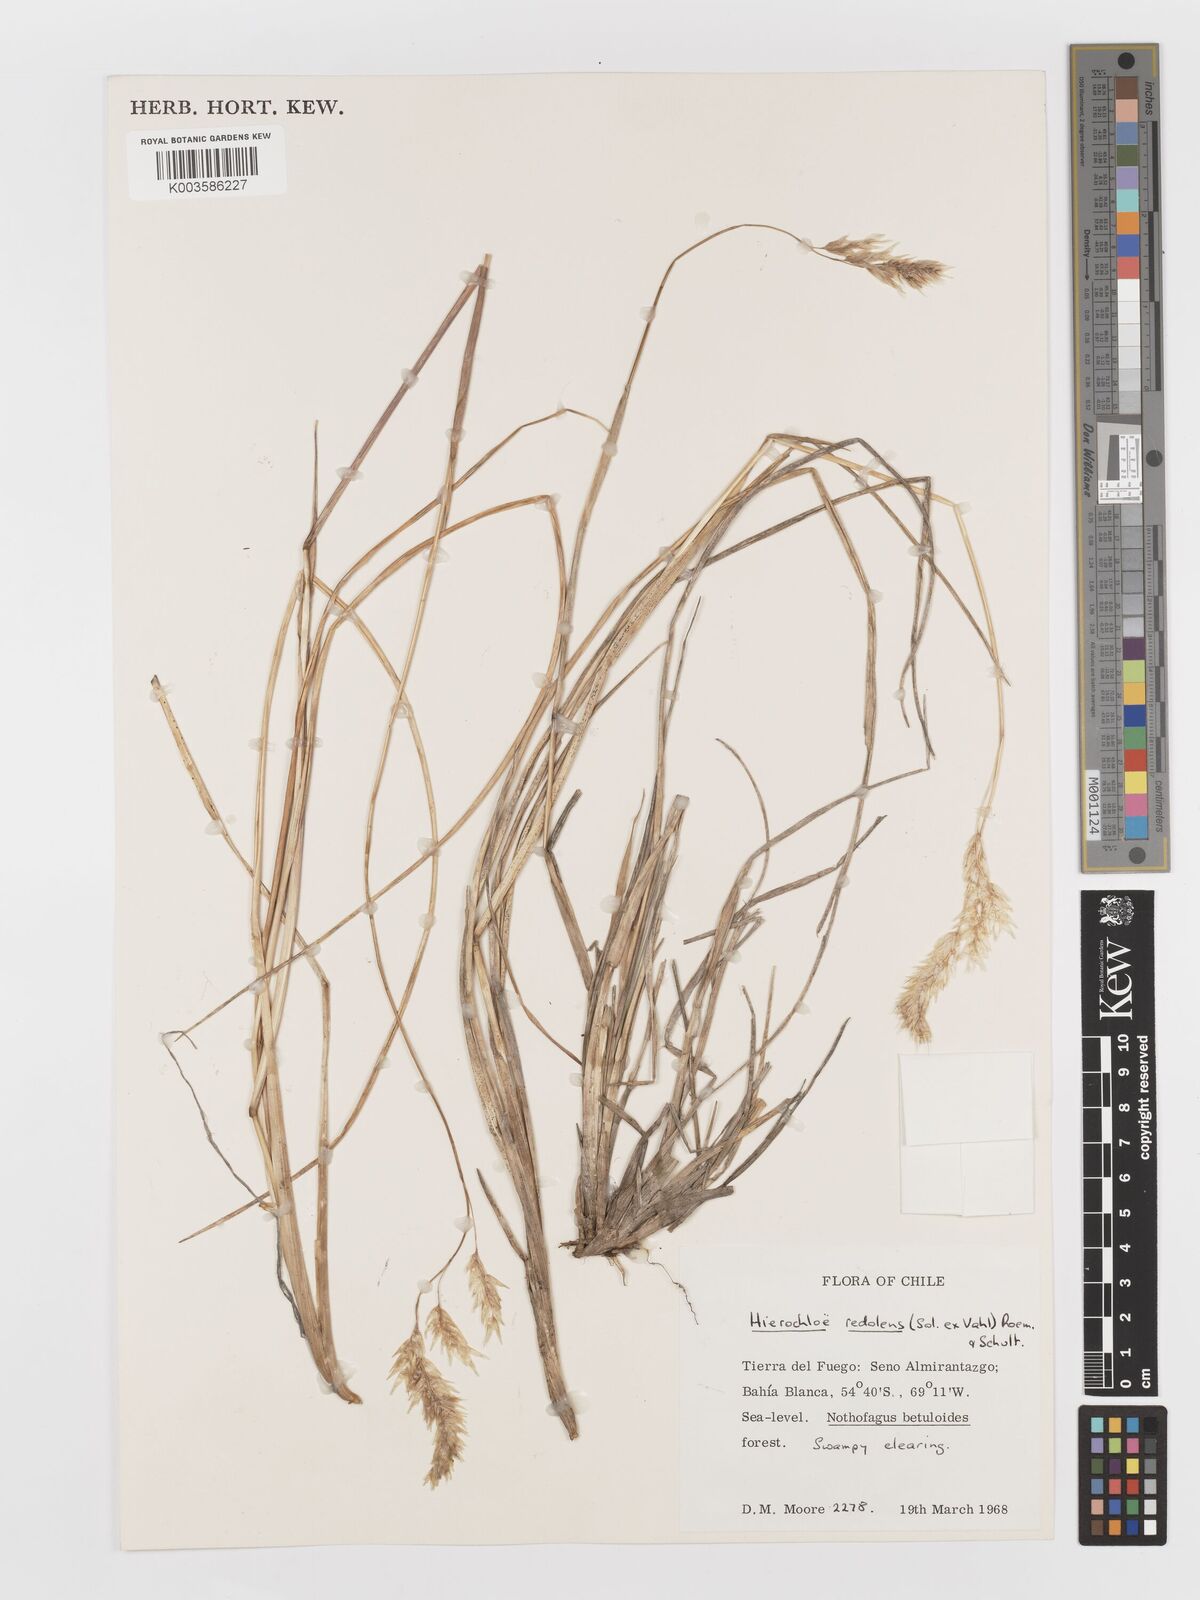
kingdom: Plantae
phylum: Tracheophyta
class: Liliopsida
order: Poales
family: Poaceae
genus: Anthoxanthum
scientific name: Anthoxanthum redolens
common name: Sweet holy grass
